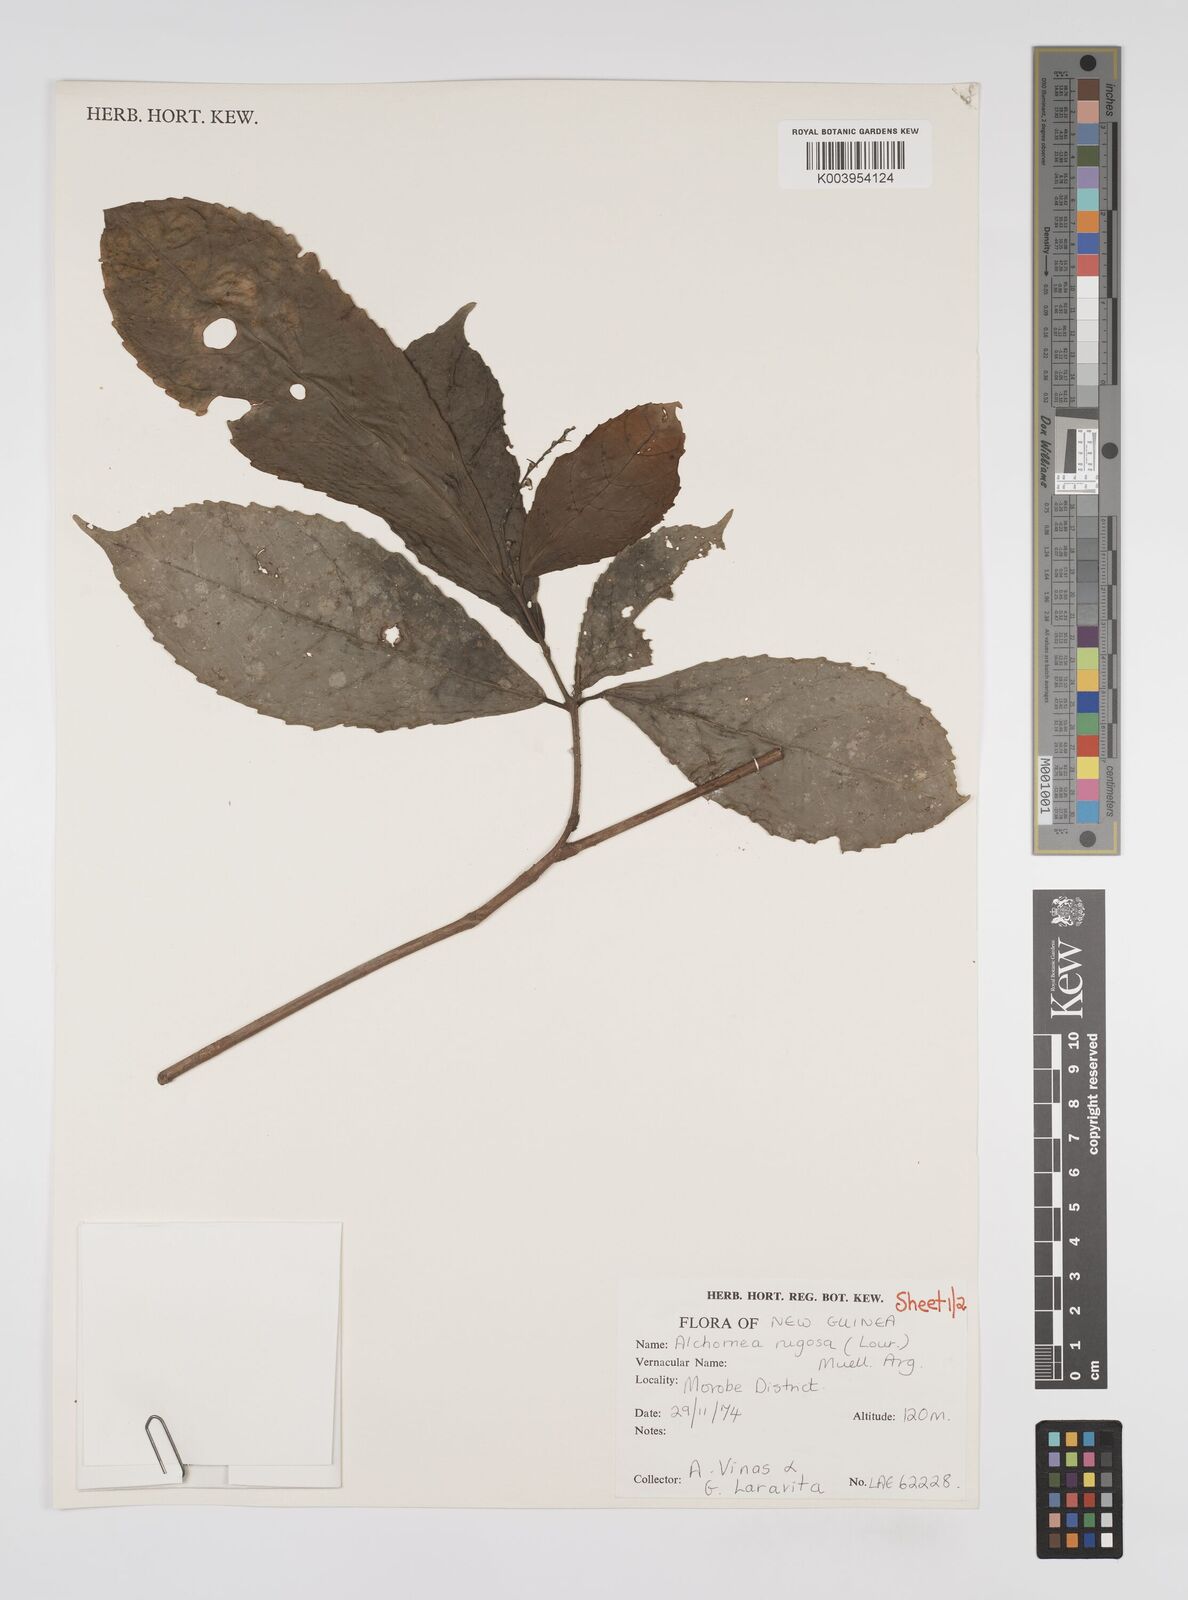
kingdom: Plantae
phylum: Tracheophyta
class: Magnoliopsida
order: Malpighiales
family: Euphorbiaceae
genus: Alchornea
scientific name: Alchornea rugosa
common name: Alchorntree
